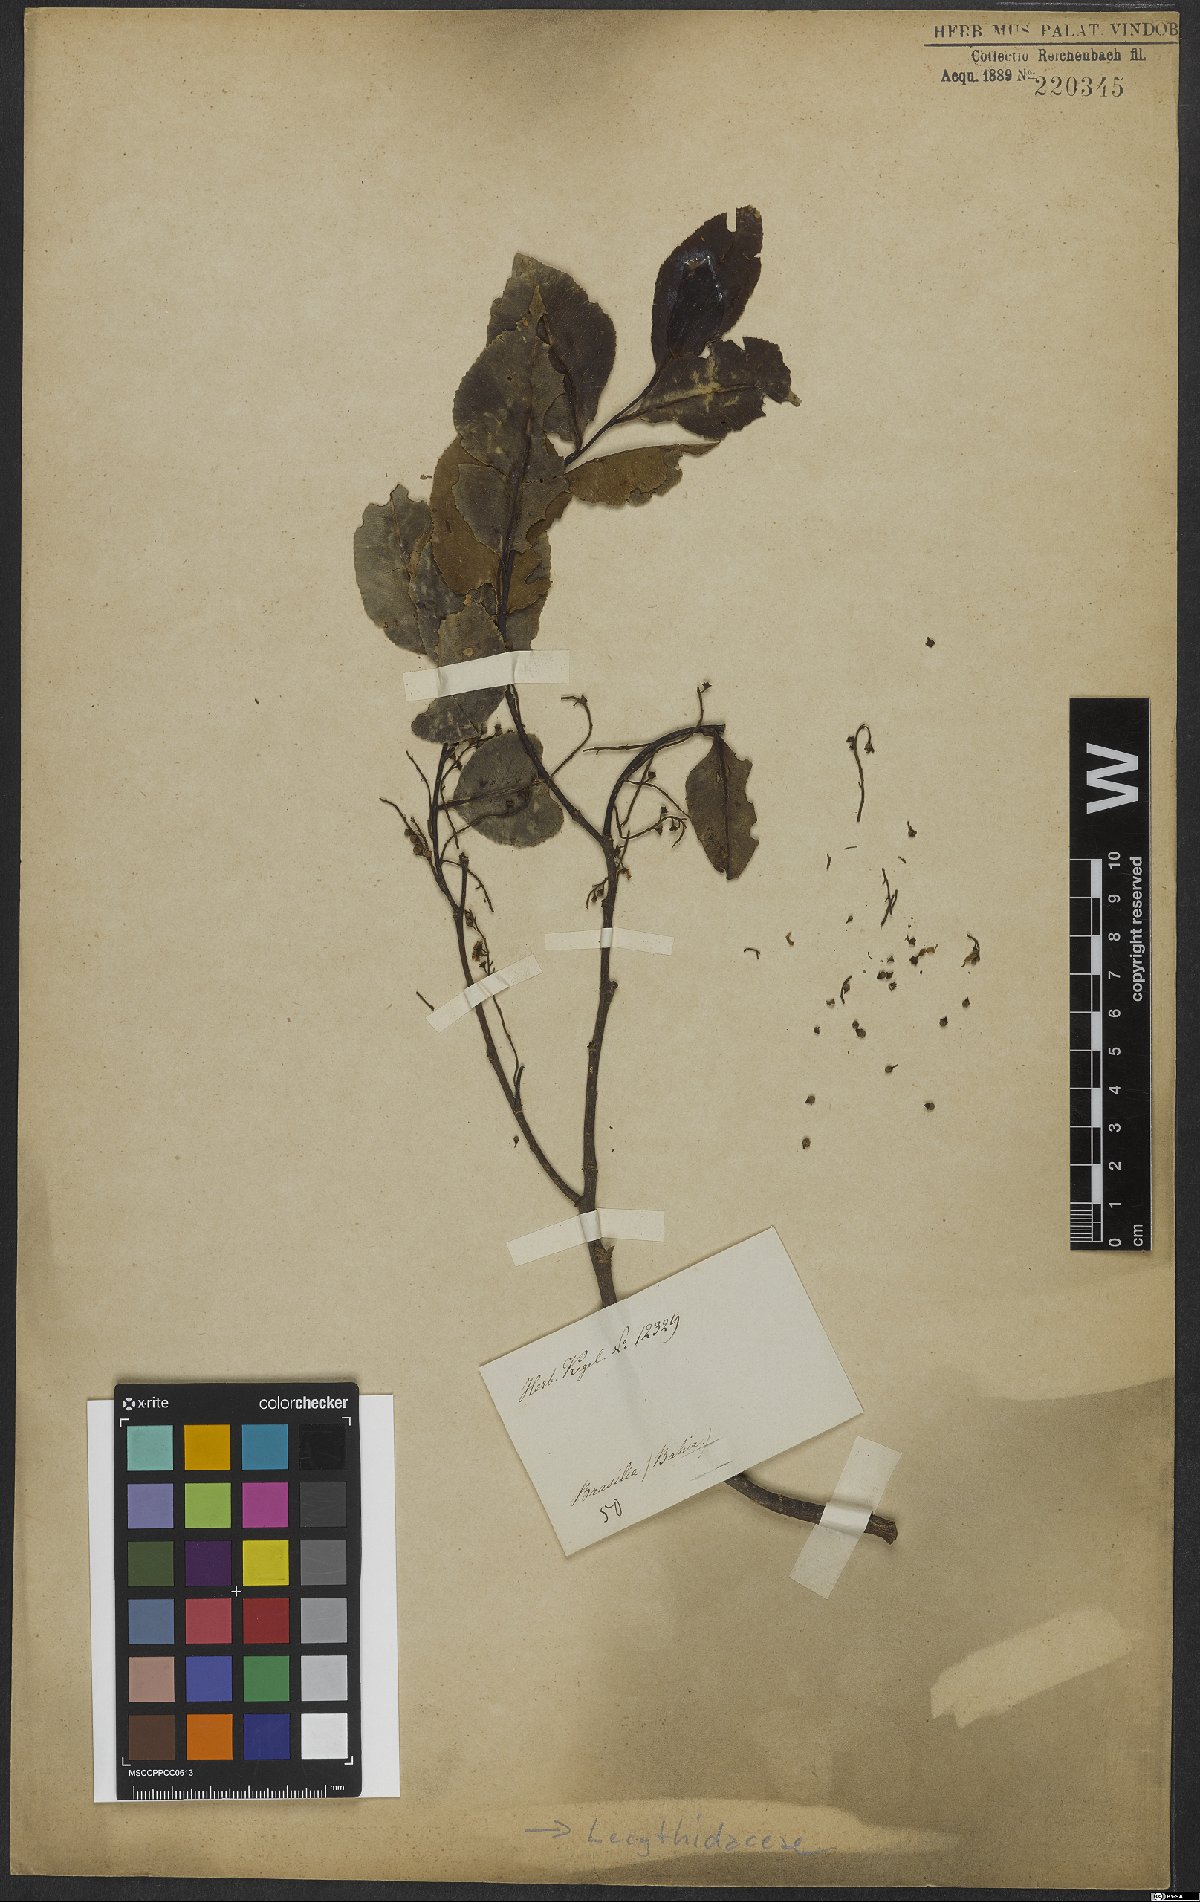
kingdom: Plantae
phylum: Tracheophyta
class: Magnoliopsida
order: Ericales
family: Lecythidaceae
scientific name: Lecythidaceae
